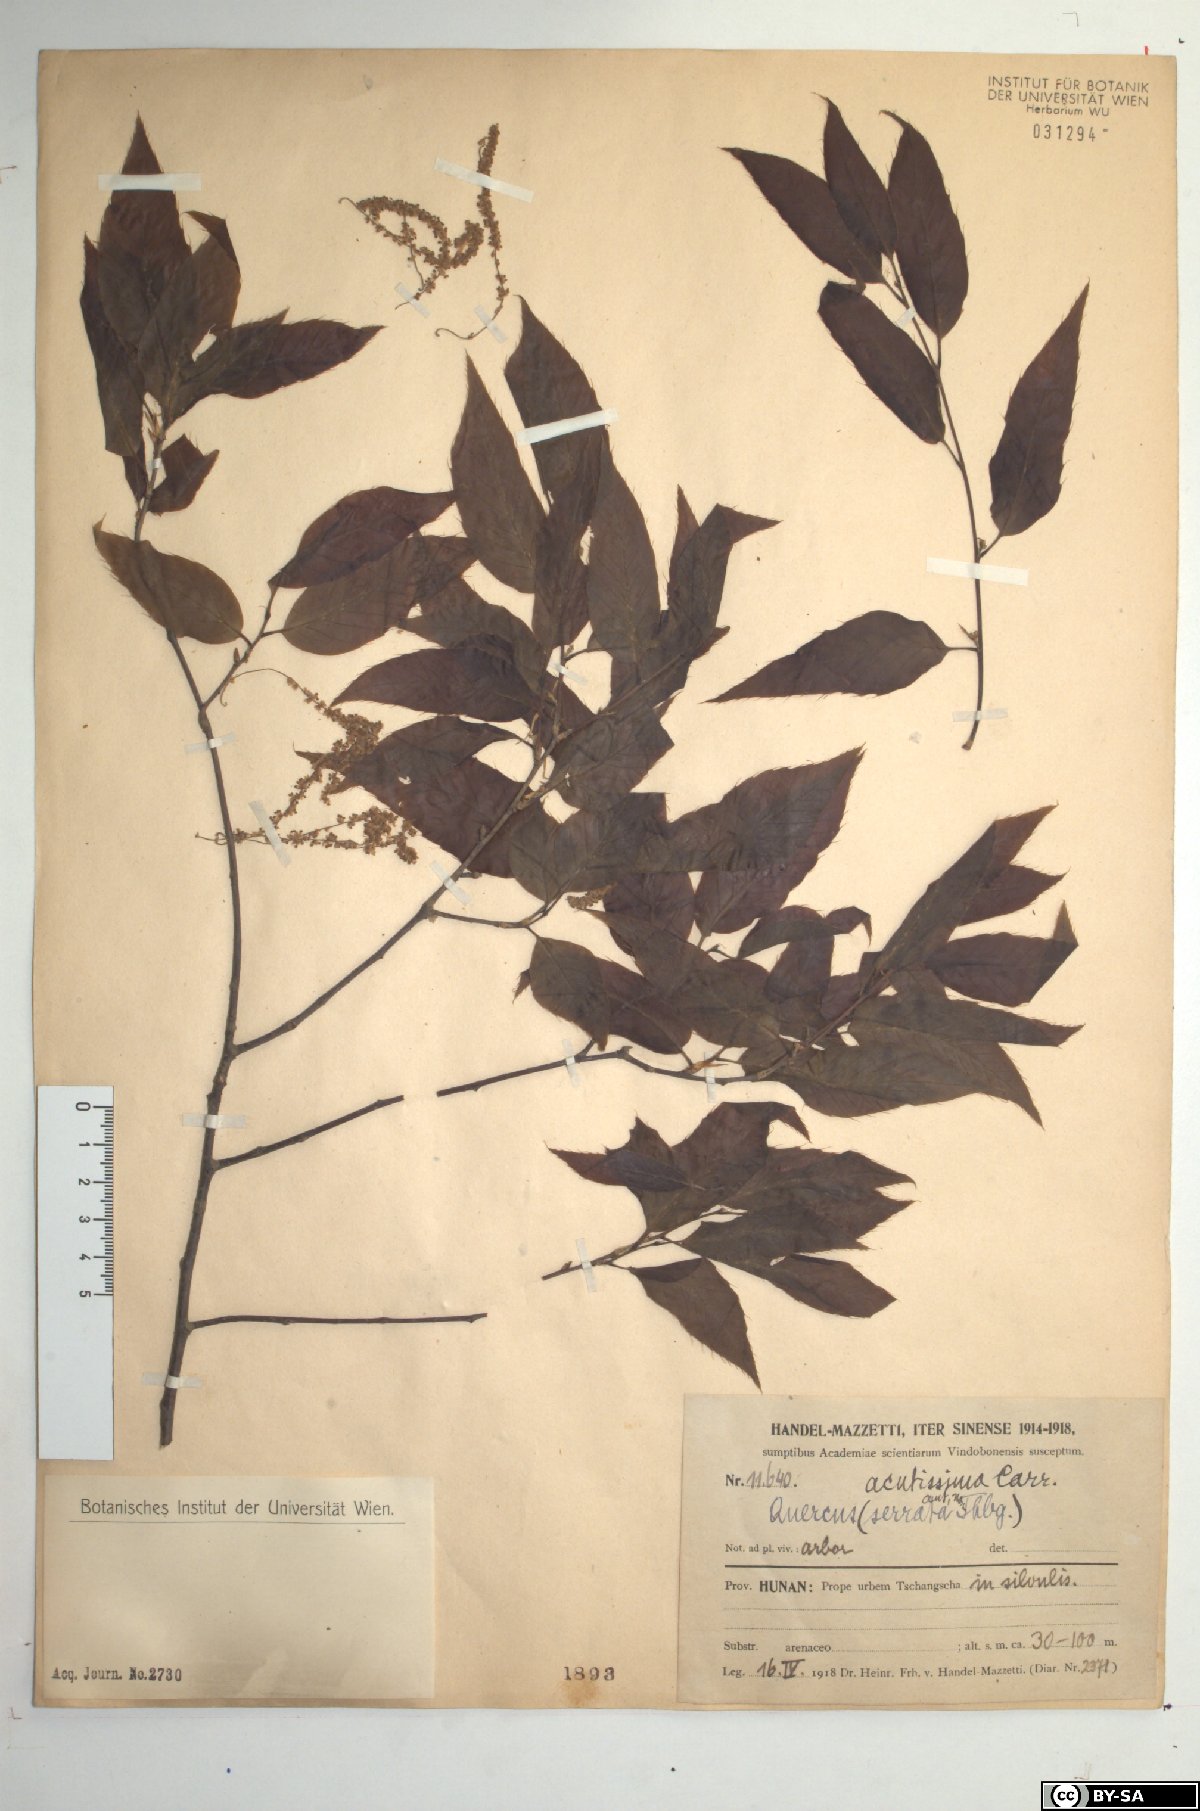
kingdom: Plantae
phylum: Tracheophyta
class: Magnoliopsida
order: Fagales
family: Fagaceae
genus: Quercus
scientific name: Quercus acutissima
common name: Sawtooth oak
